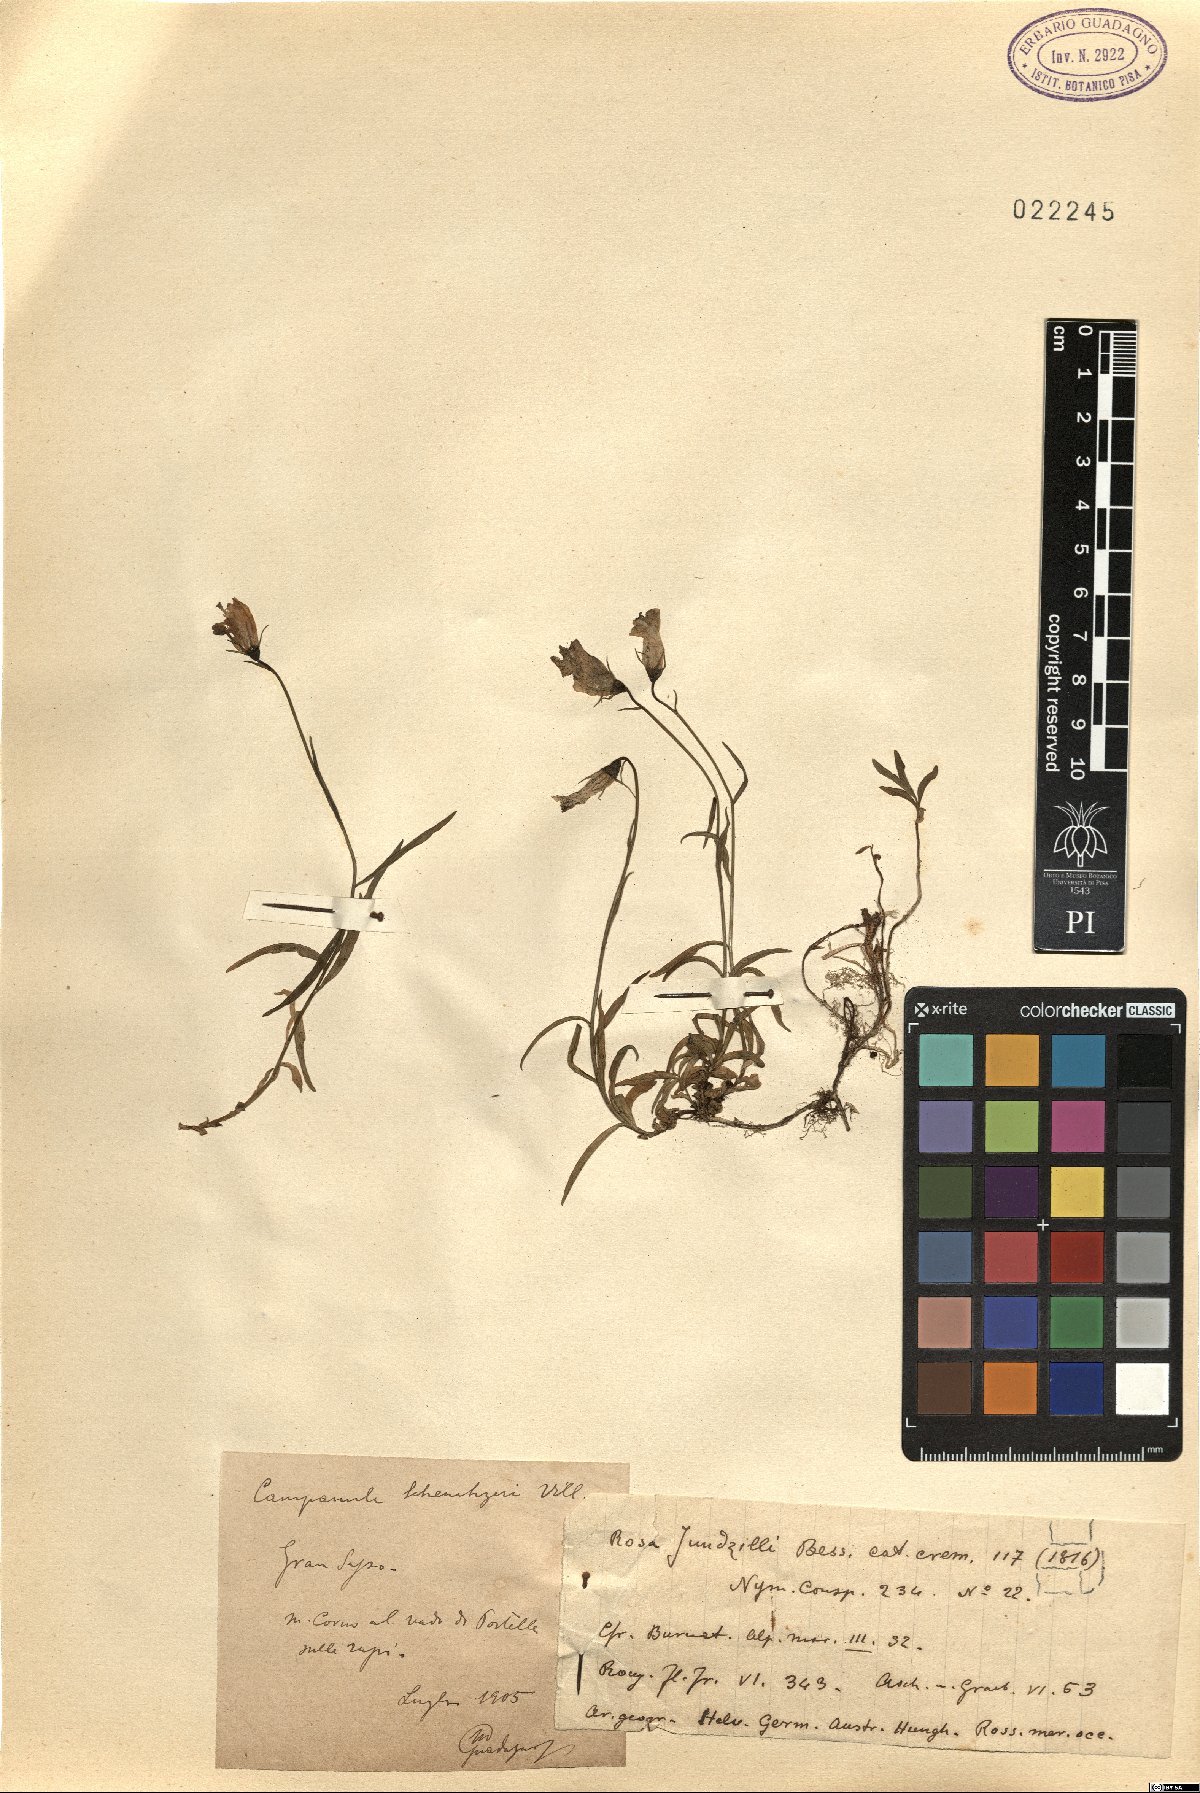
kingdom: Plantae
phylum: Tracheophyta
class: Magnoliopsida
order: Asterales
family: Campanulaceae
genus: Campanula
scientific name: Campanula scheuchzeri
